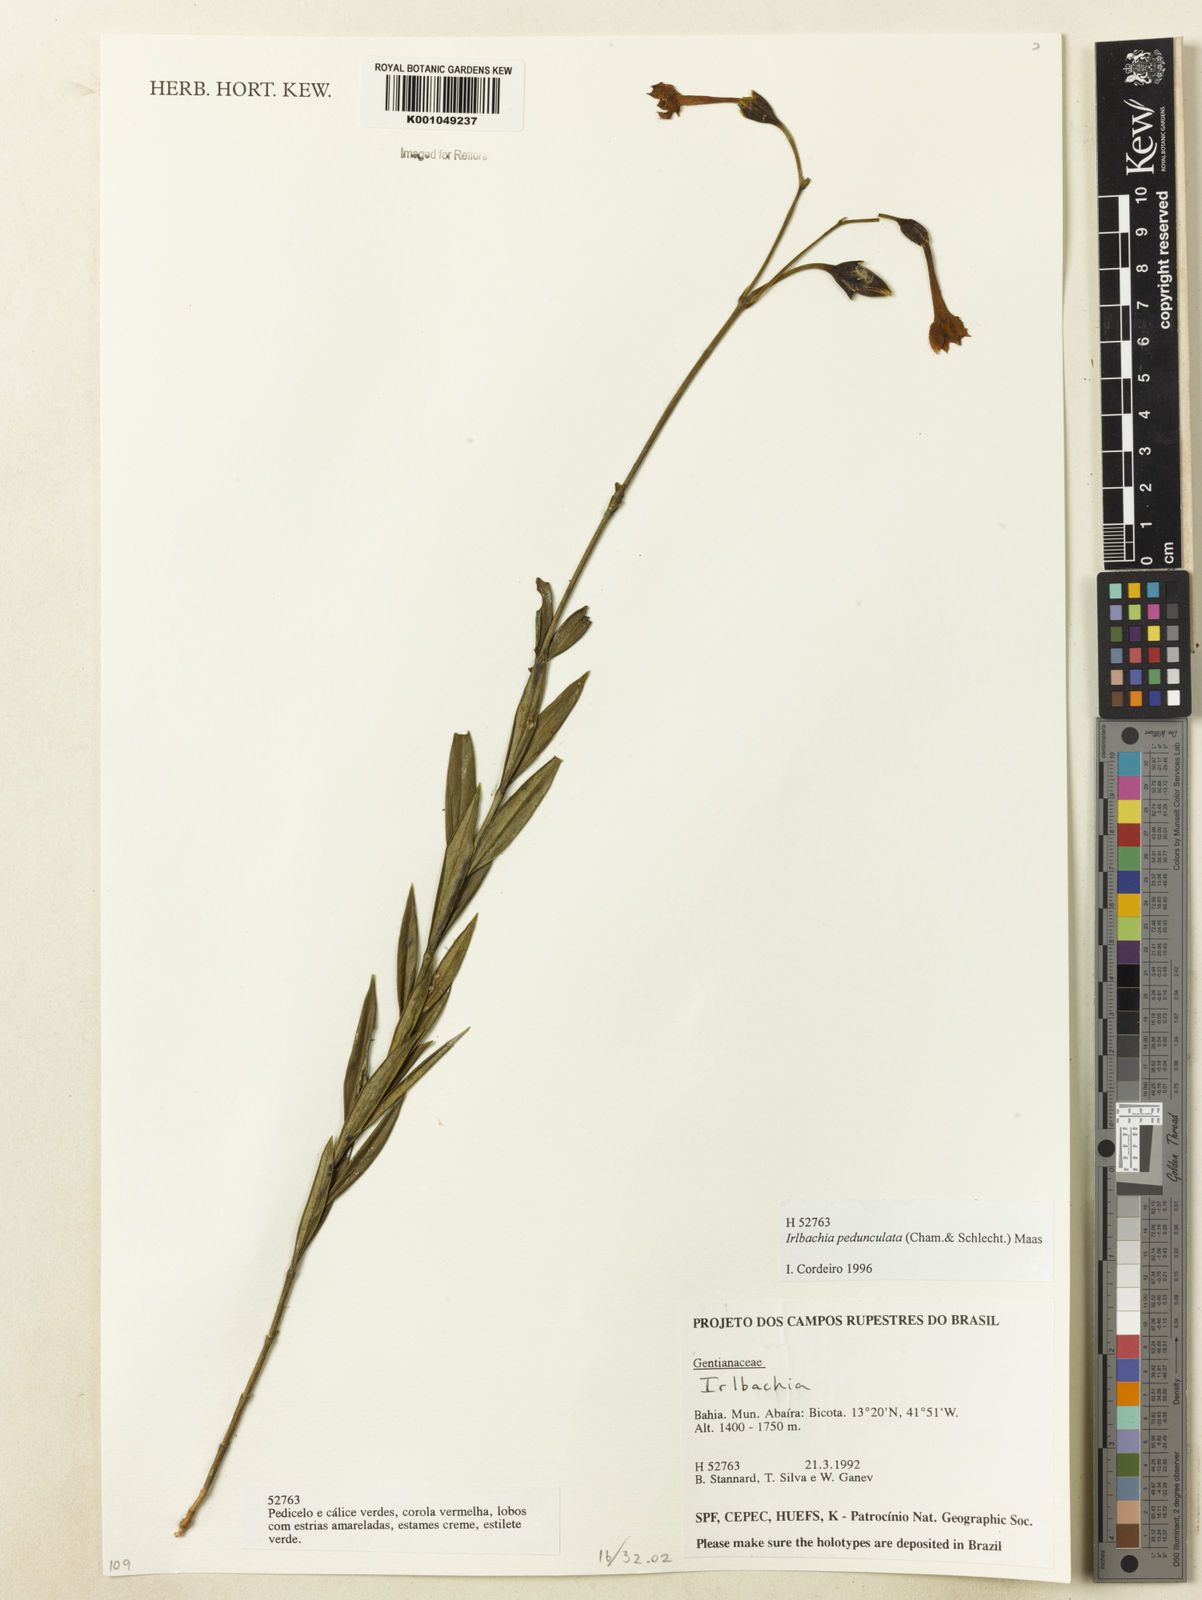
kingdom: Plantae
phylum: Tracheophyta
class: Magnoliopsida
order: Gentianales
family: Gentianaceae
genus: Calolisianthus
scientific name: Calolisianthus pedunculatus
